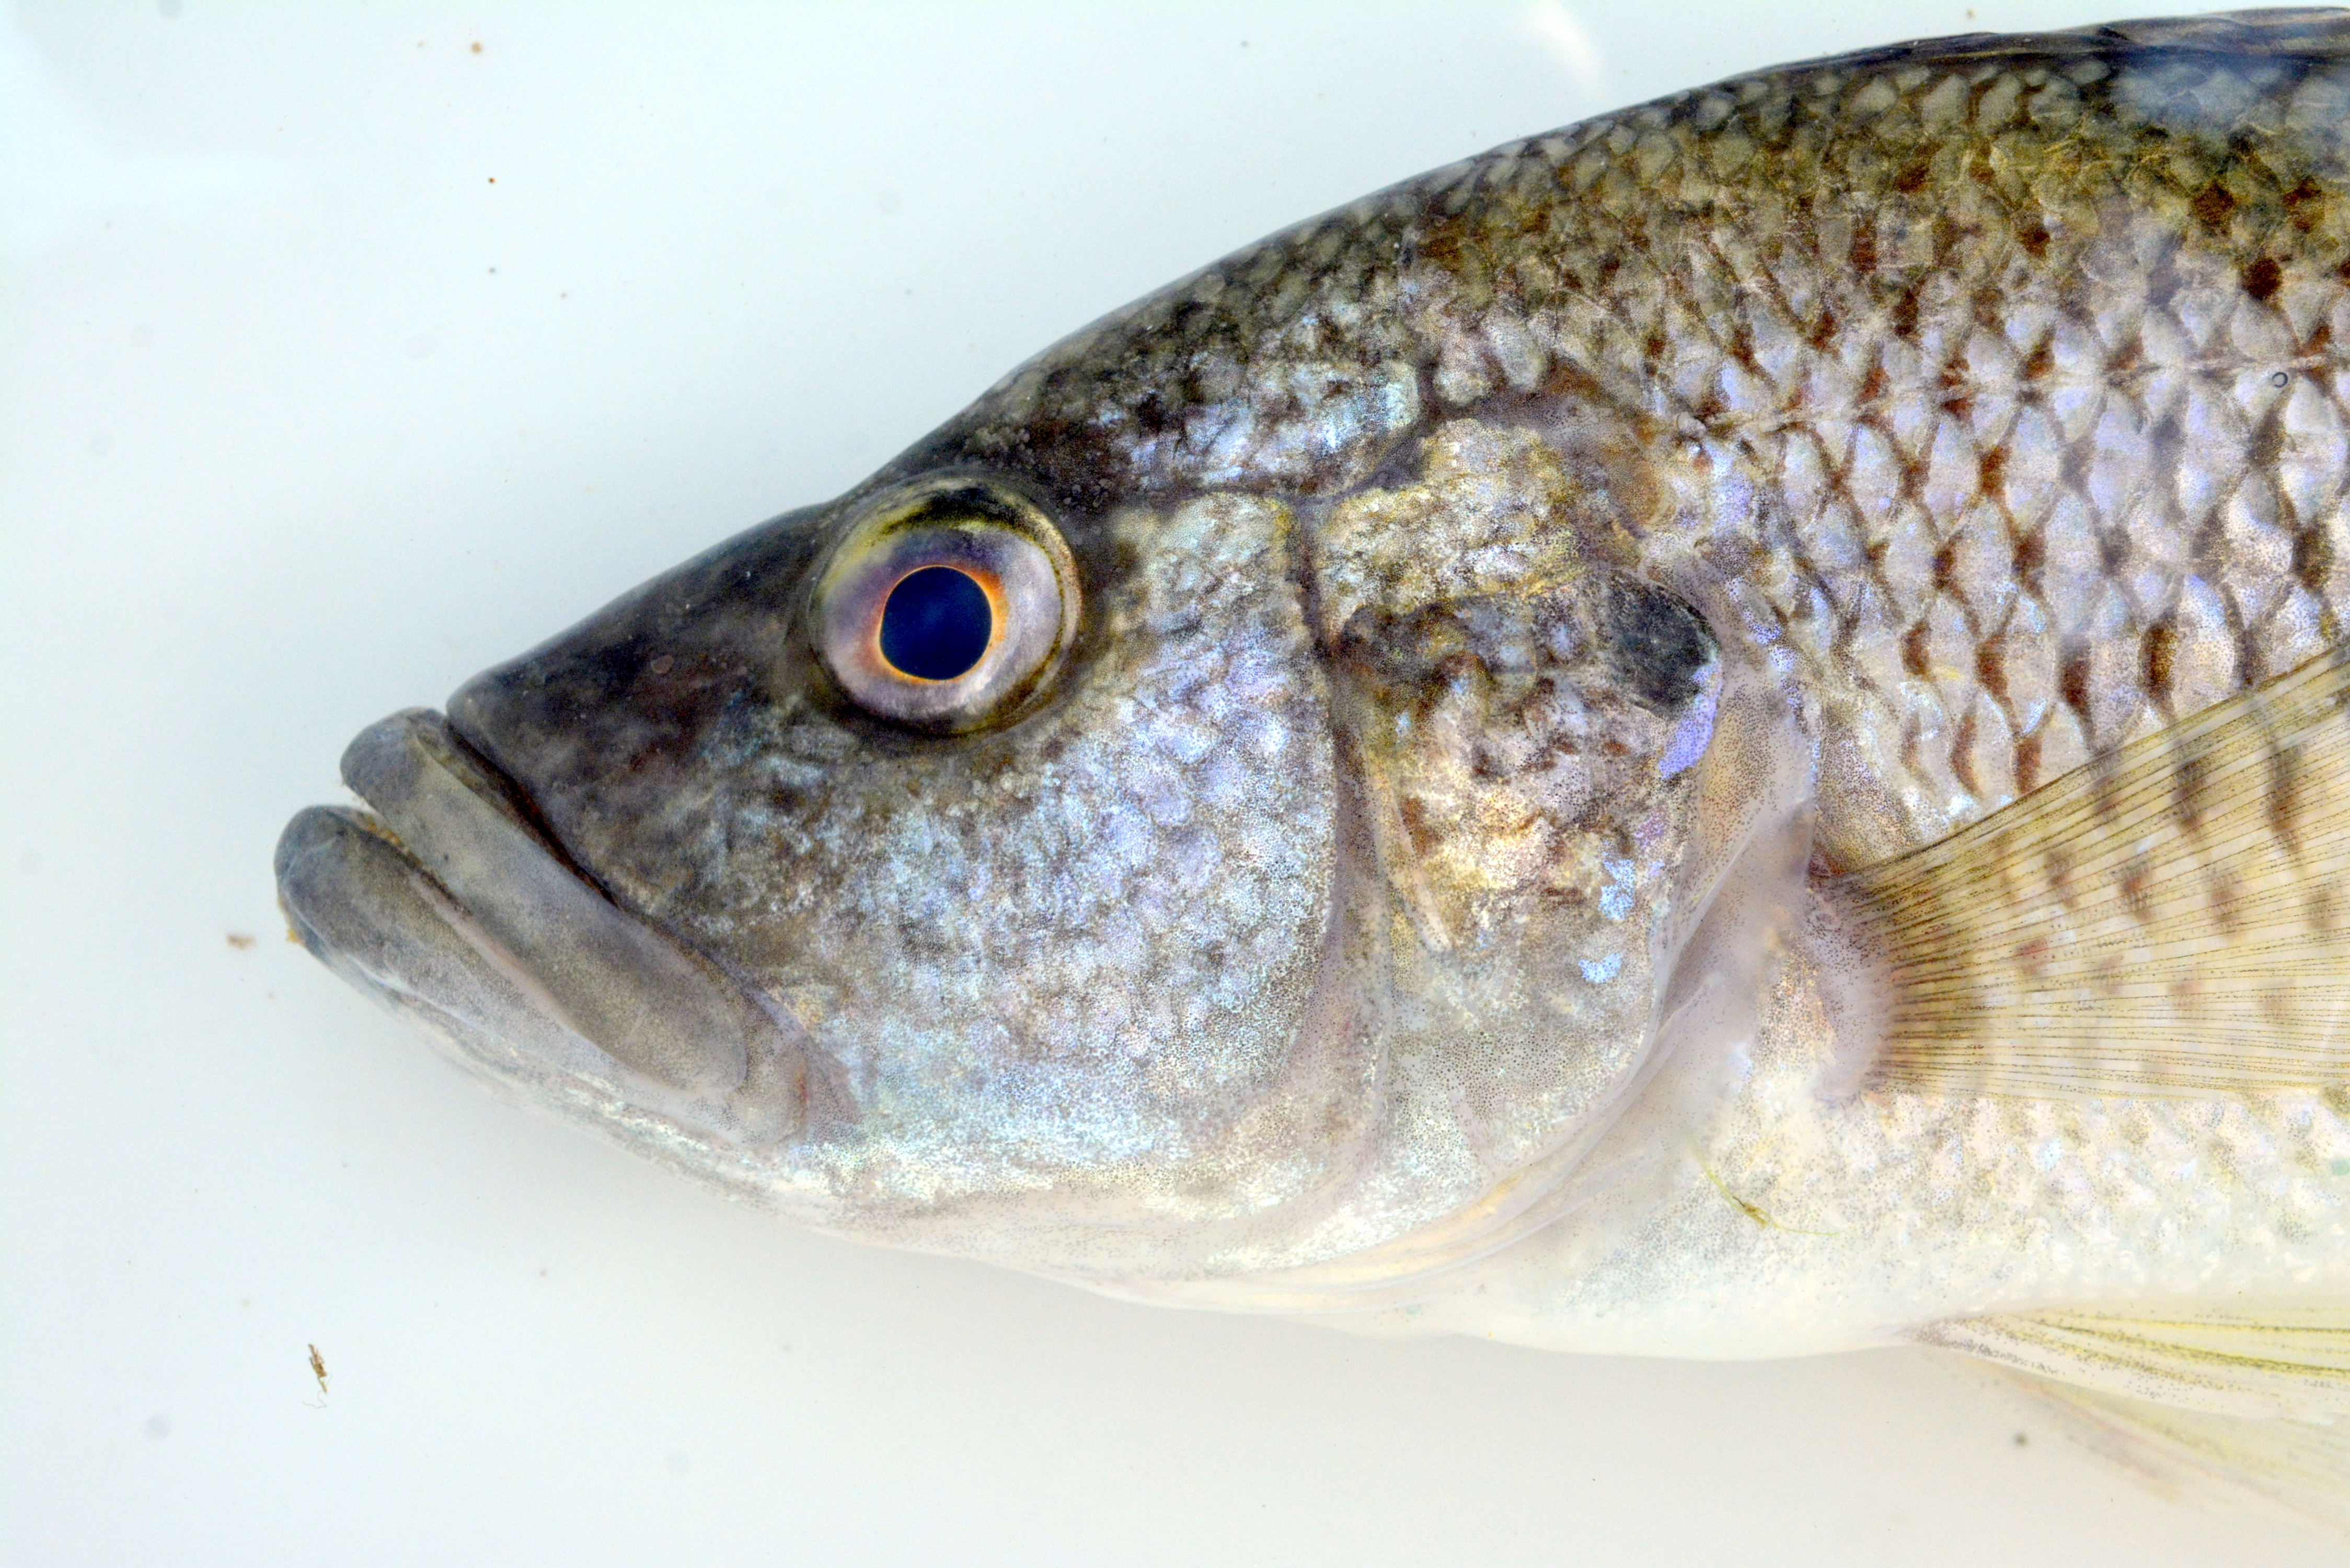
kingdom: Animalia
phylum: Chordata
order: Perciformes
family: Cichlidae
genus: Serranochromis
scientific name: Serranochromis macrocephalus
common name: Purpleface largemouth
